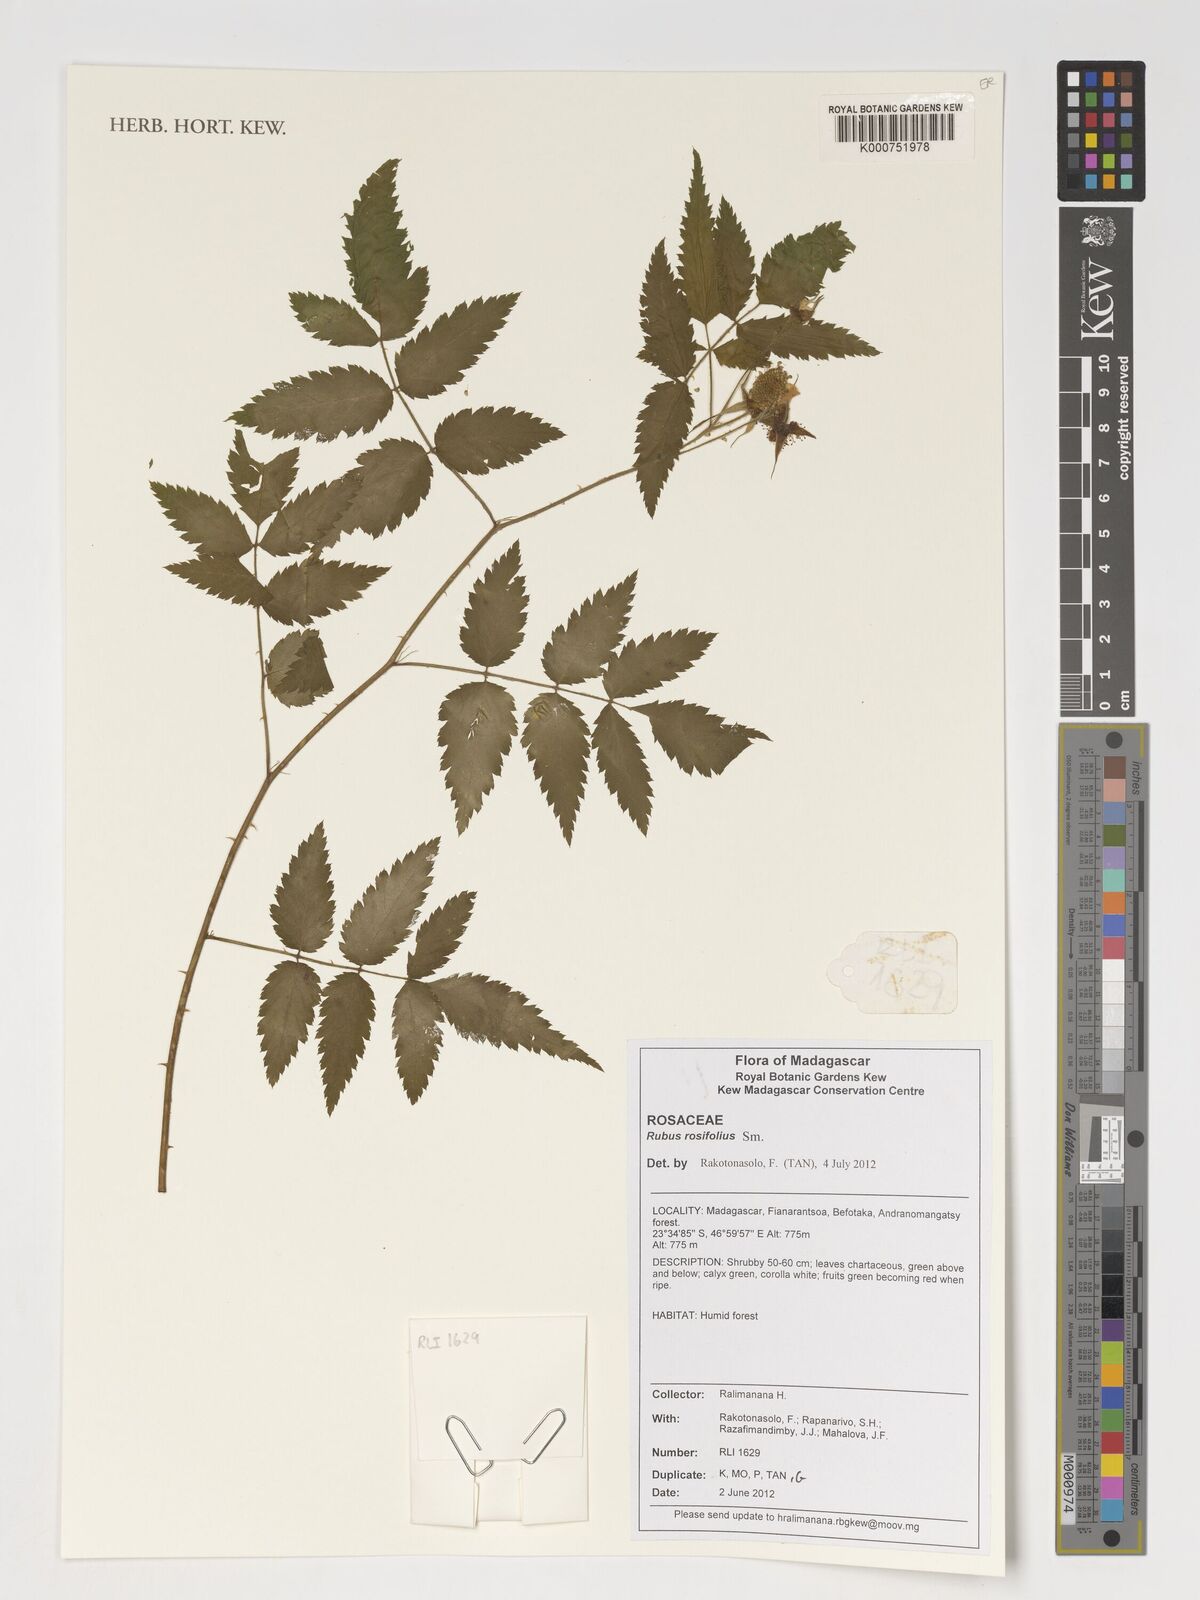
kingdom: Plantae
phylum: Tracheophyta
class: Magnoliopsida
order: Rosales
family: Rosaceae
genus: Rubus
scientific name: Rubus rosifolius
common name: Roseleaf raspberry
